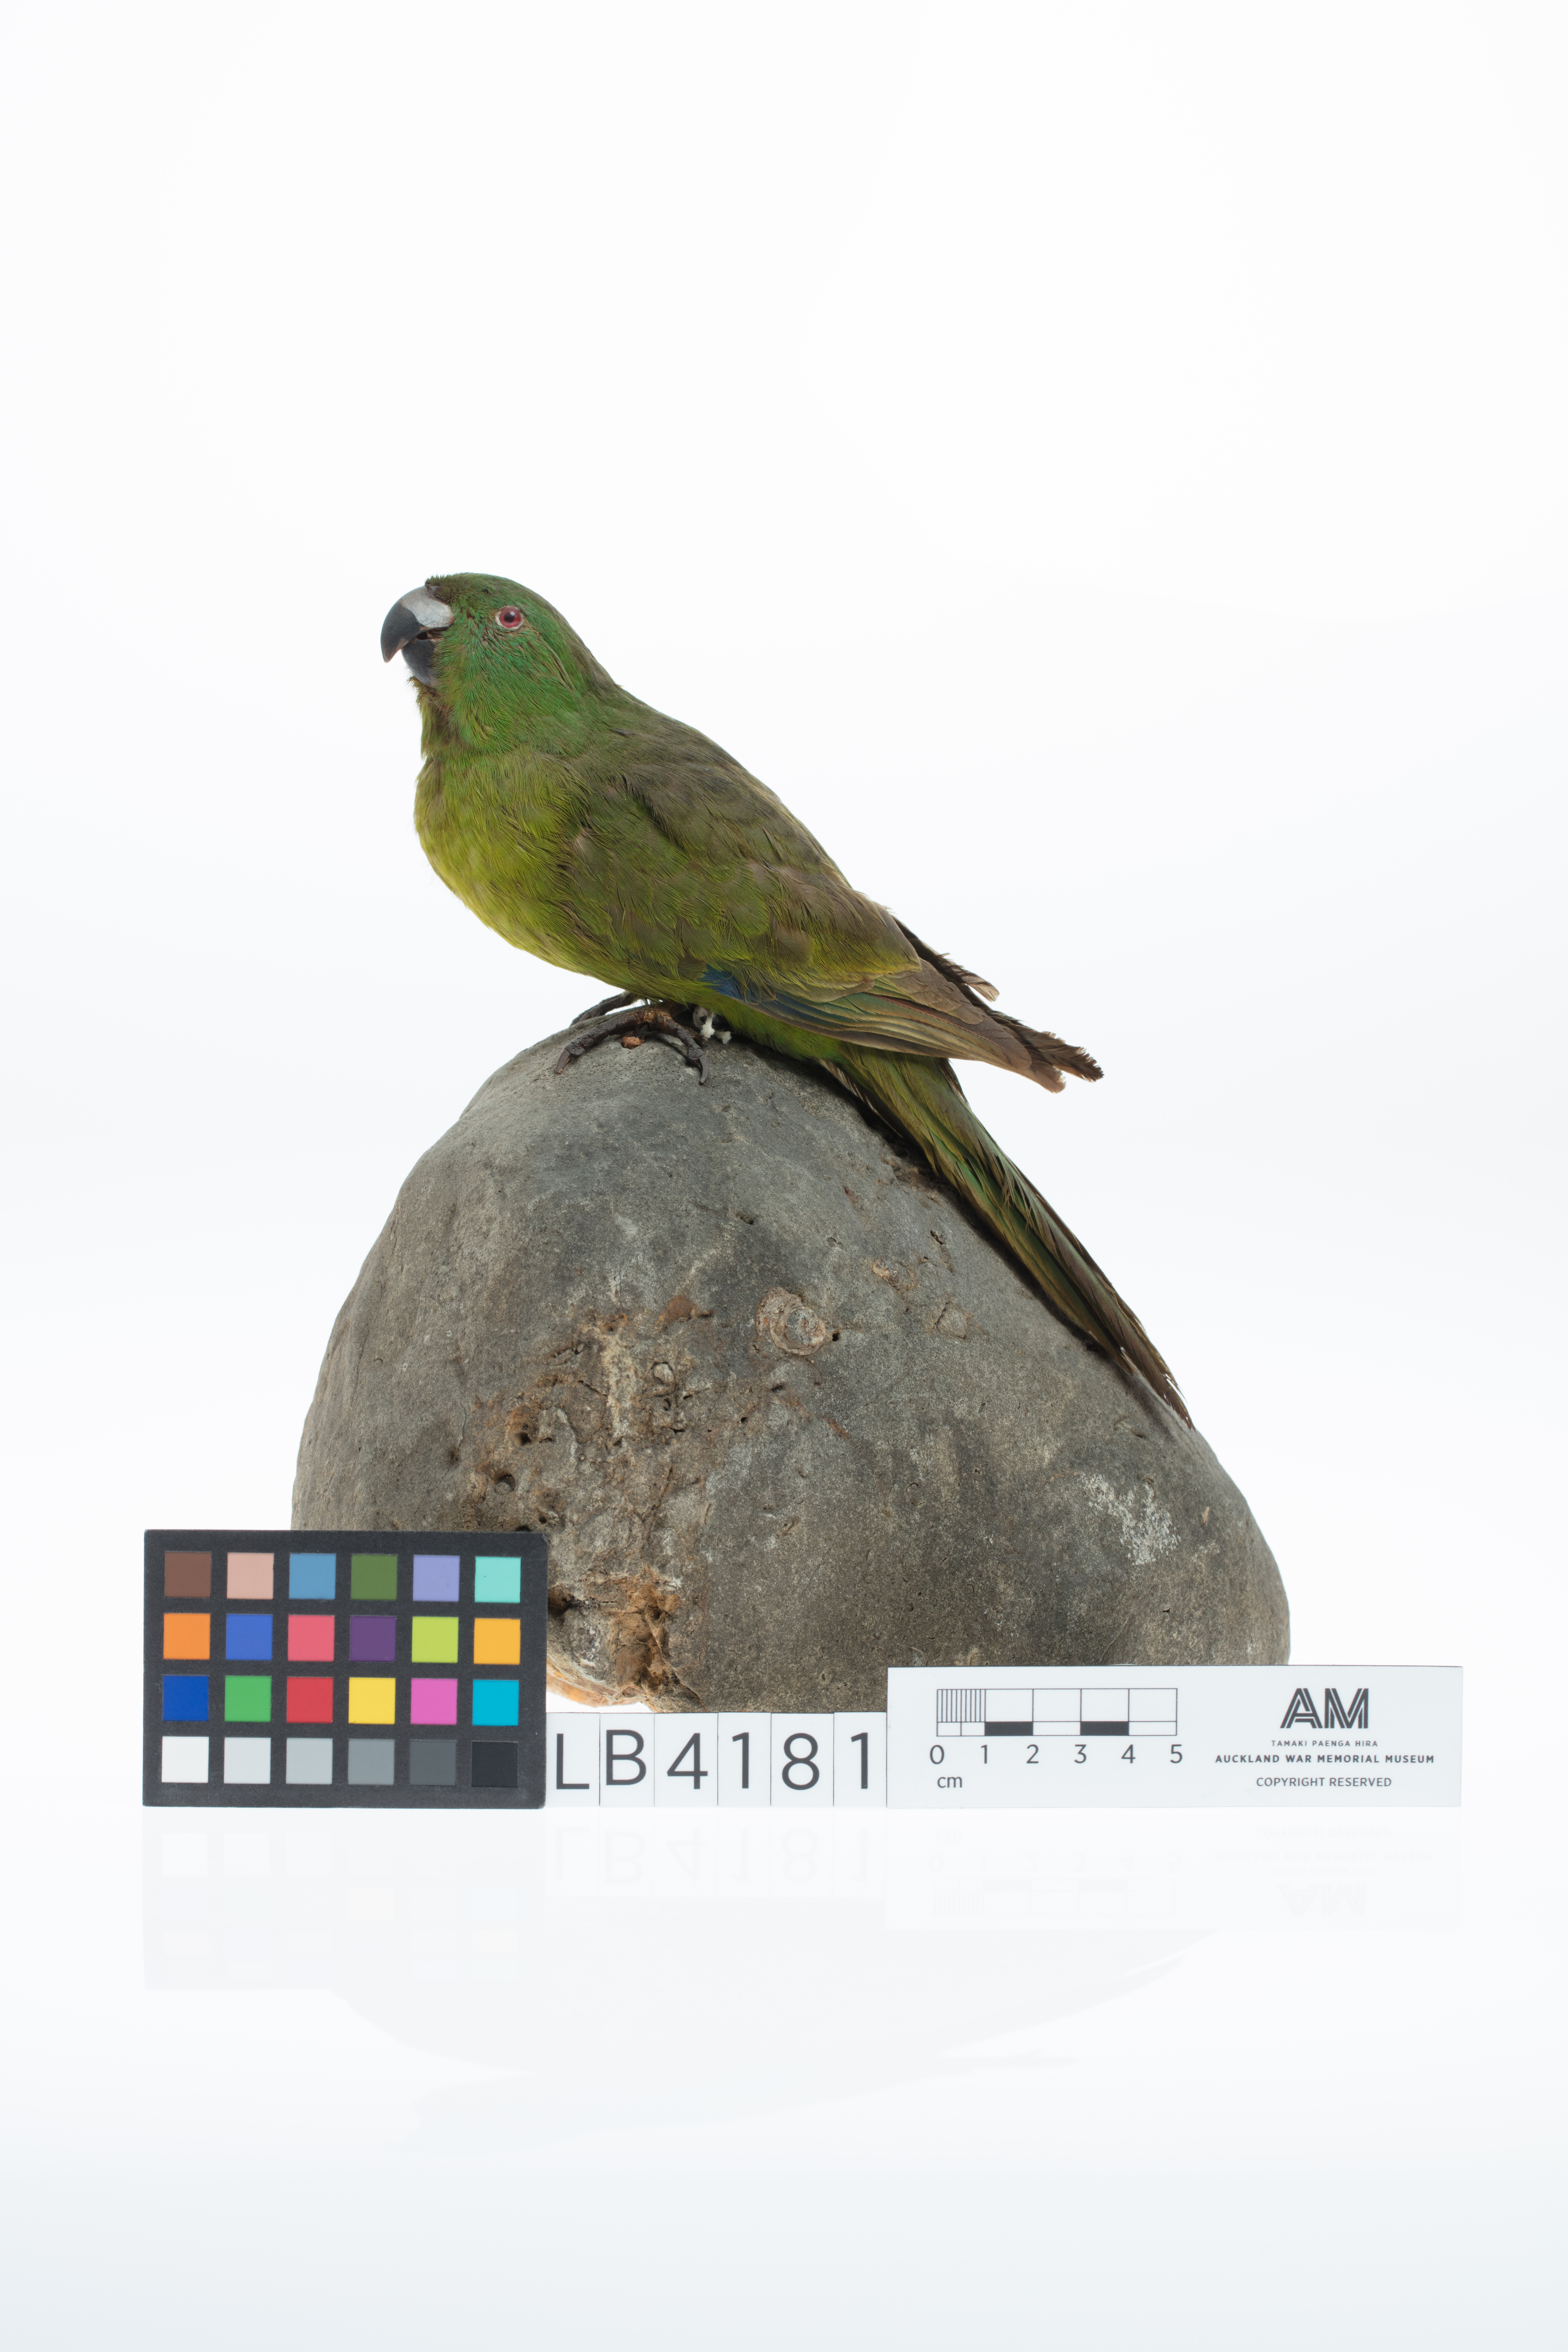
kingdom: Animalia
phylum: Chordata
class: Aves
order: Psittaciformes
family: Psittacidae
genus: Cyanoramphus
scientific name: Cyanoramphus unicolor
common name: Antipodes parakeet
